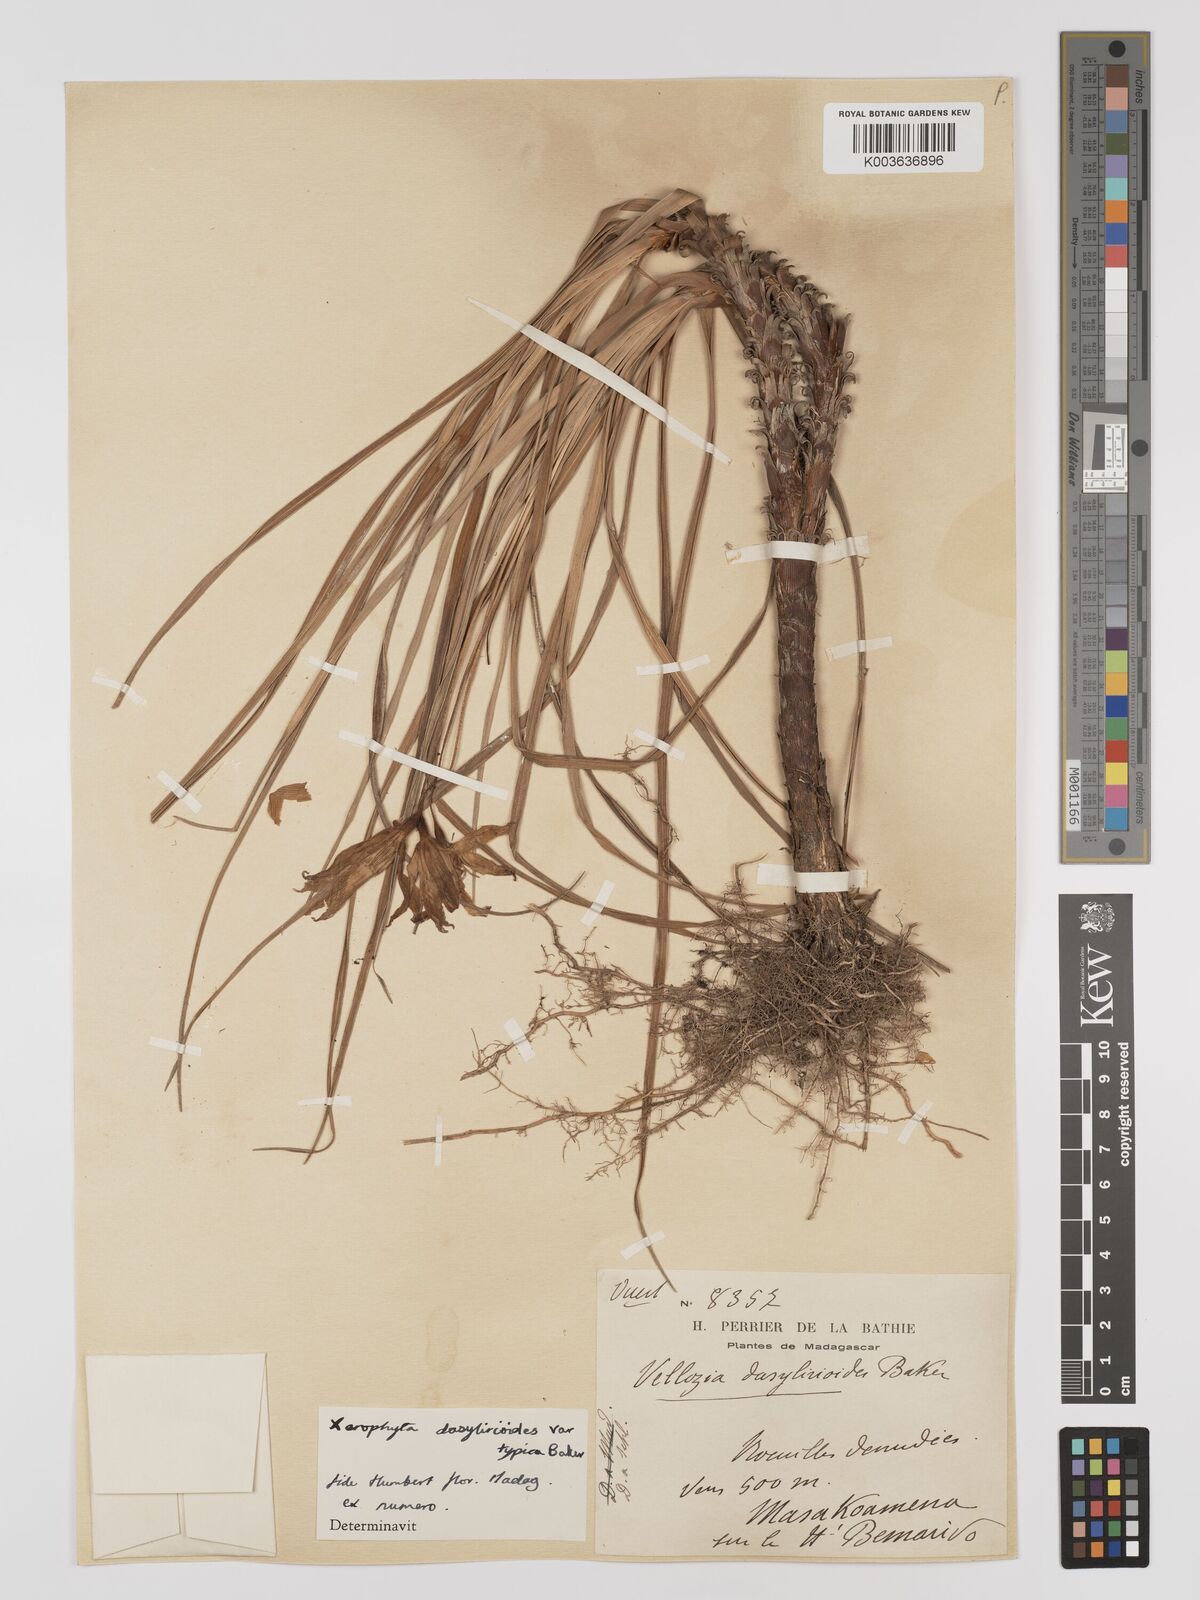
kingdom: Plantae
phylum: Tracheophyta
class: Liliopsida
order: Pandanales
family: Velloziaceae
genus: Xerophyta
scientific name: Xerophyta dasylirioides
